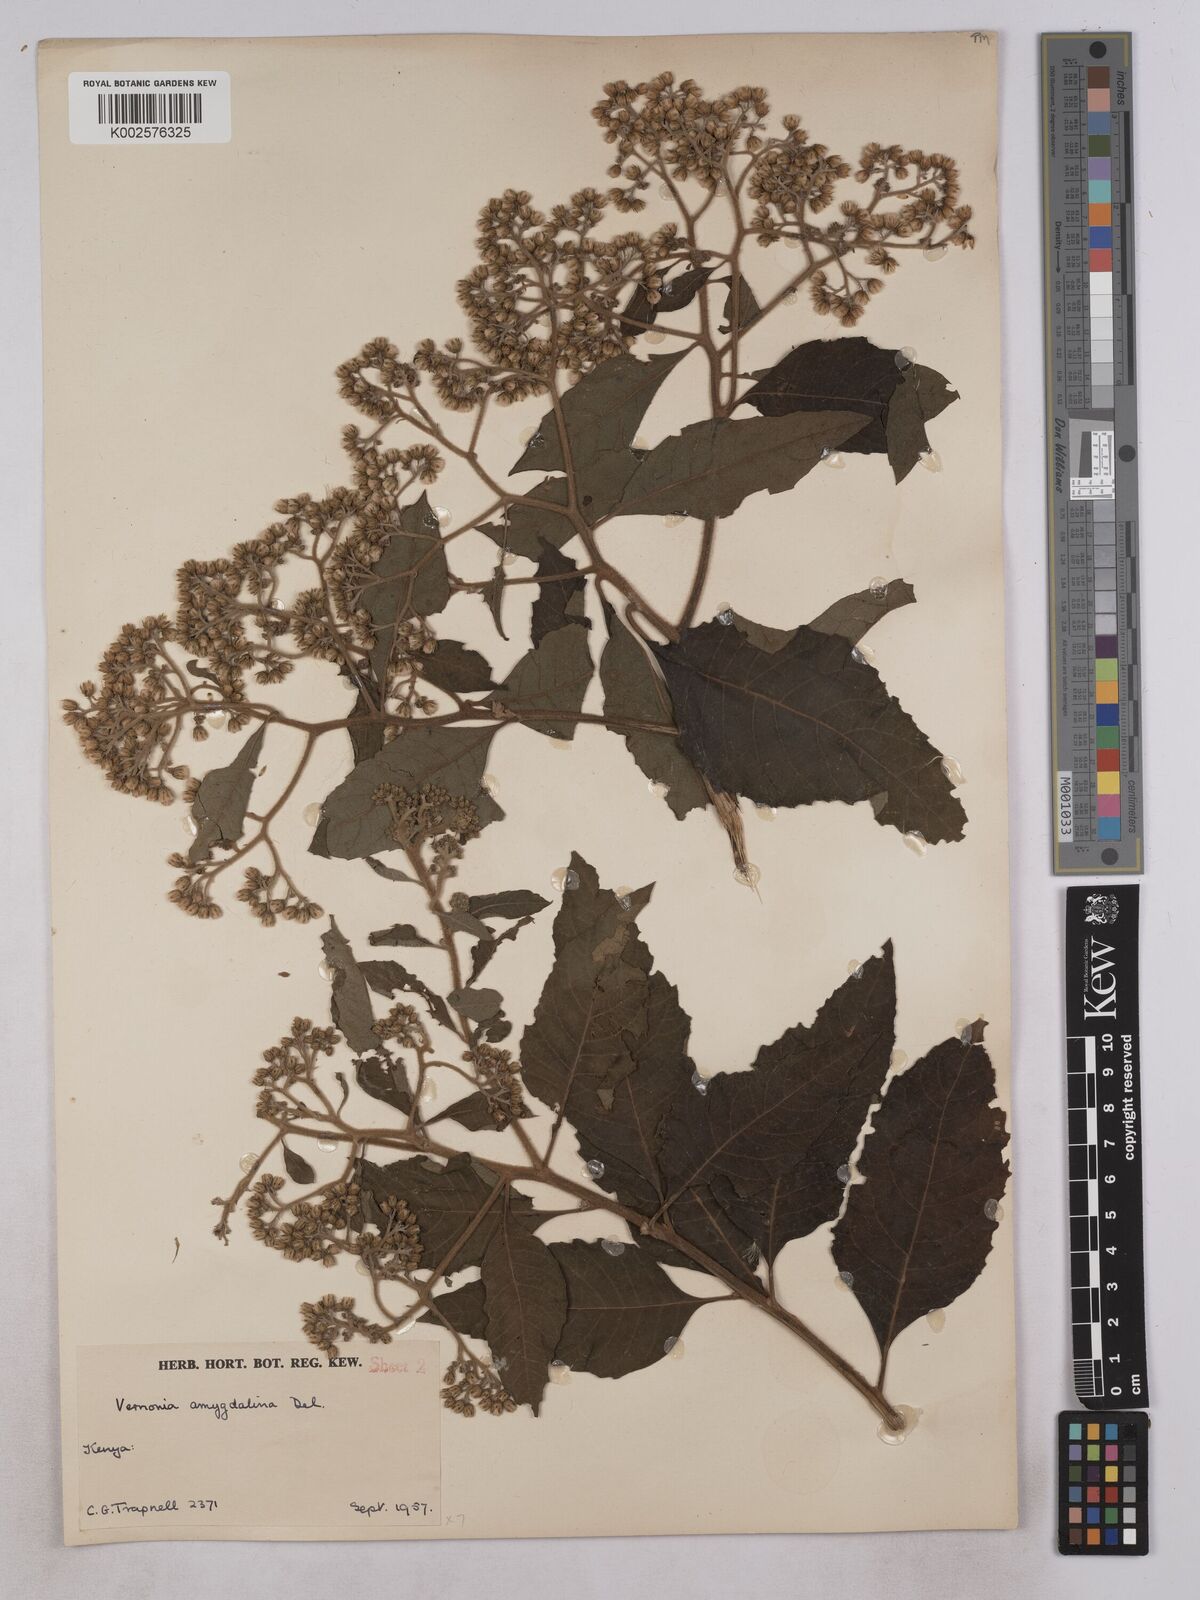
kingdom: Plantae
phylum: Tracheophyta
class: Magnoliopsida
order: Asterales
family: Asteraceae
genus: Gymnanthemum
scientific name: Gymnanthemum amygdalinum
